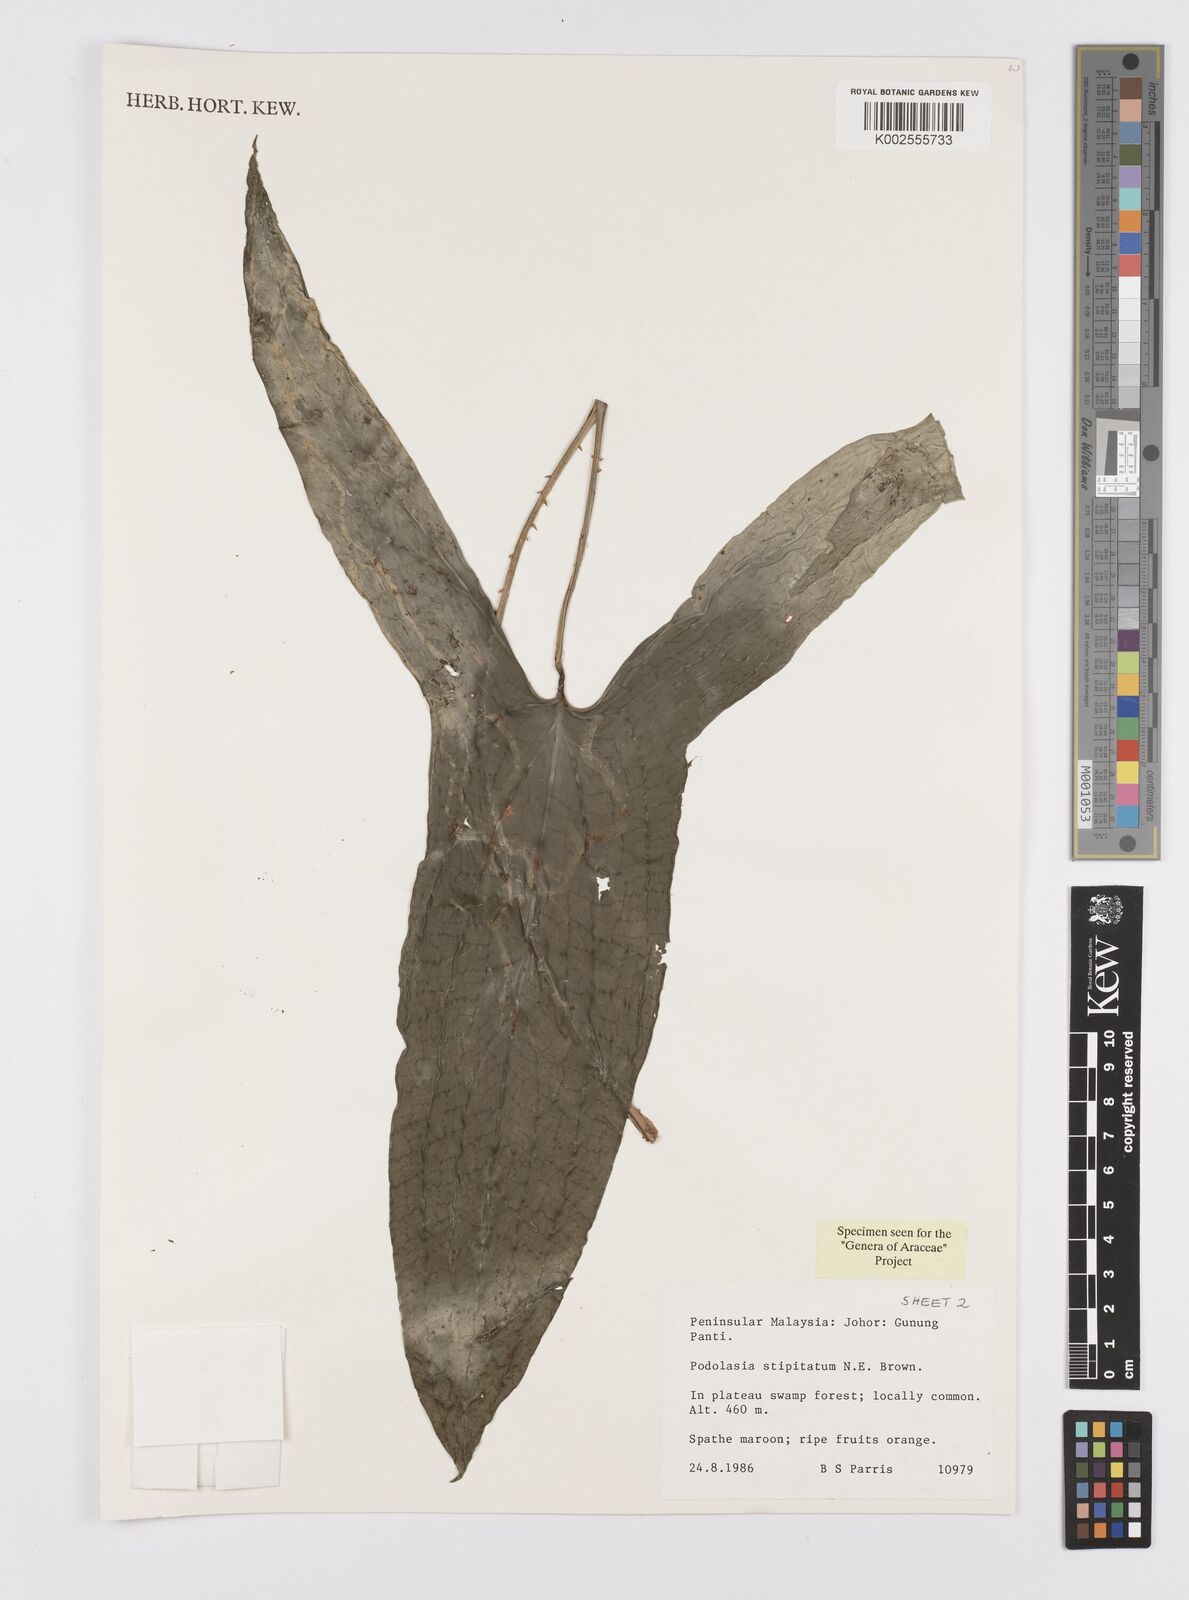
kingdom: Plantae
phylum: Tracheophyta
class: Liliopsida
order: Alismatales
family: Araceae
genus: Podolasia
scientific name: Podolasia stipitata
